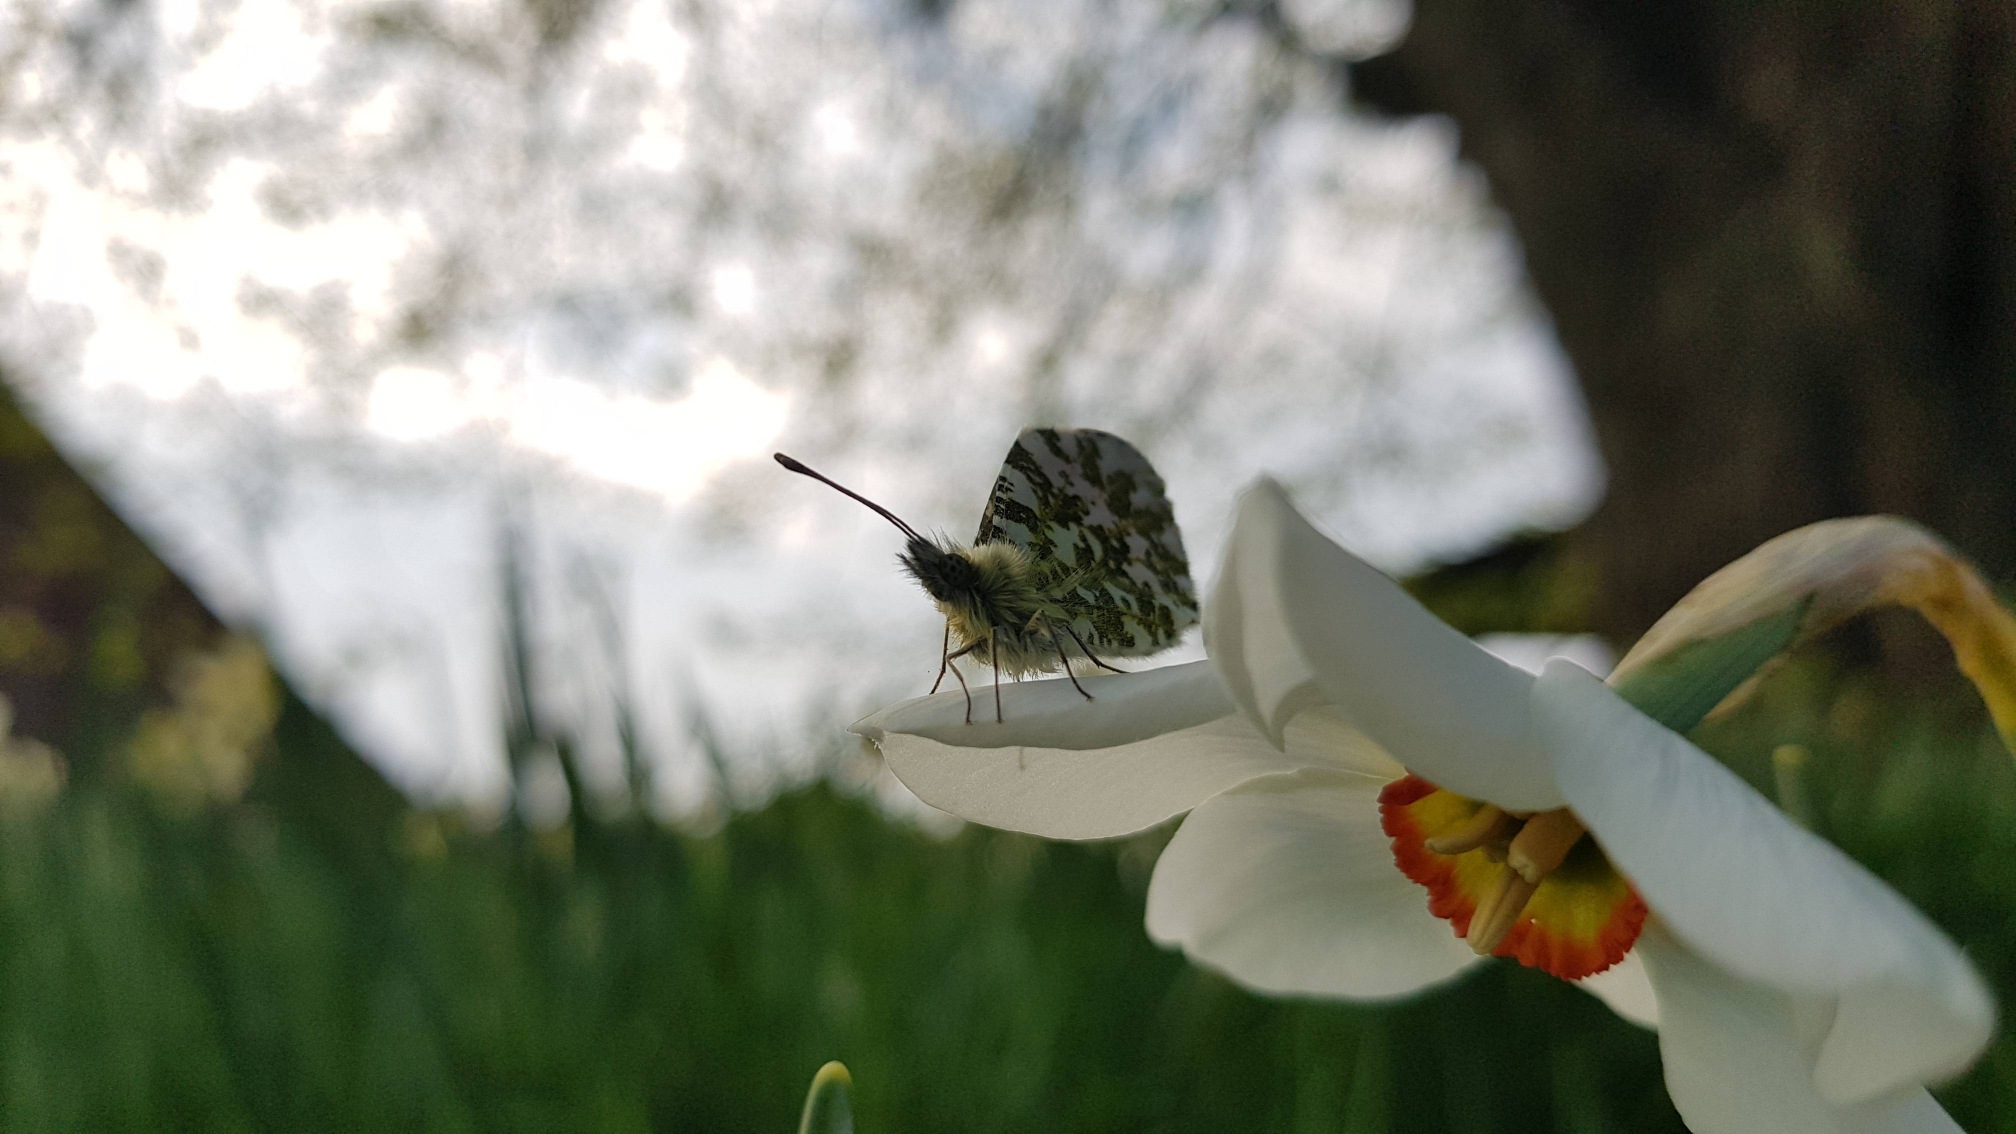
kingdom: Animalia
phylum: Arthropoda
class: Insecta
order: Lepidoptera
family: Pieridae
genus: Anthocharis
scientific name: Anthocharis cardamines
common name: Aurora
